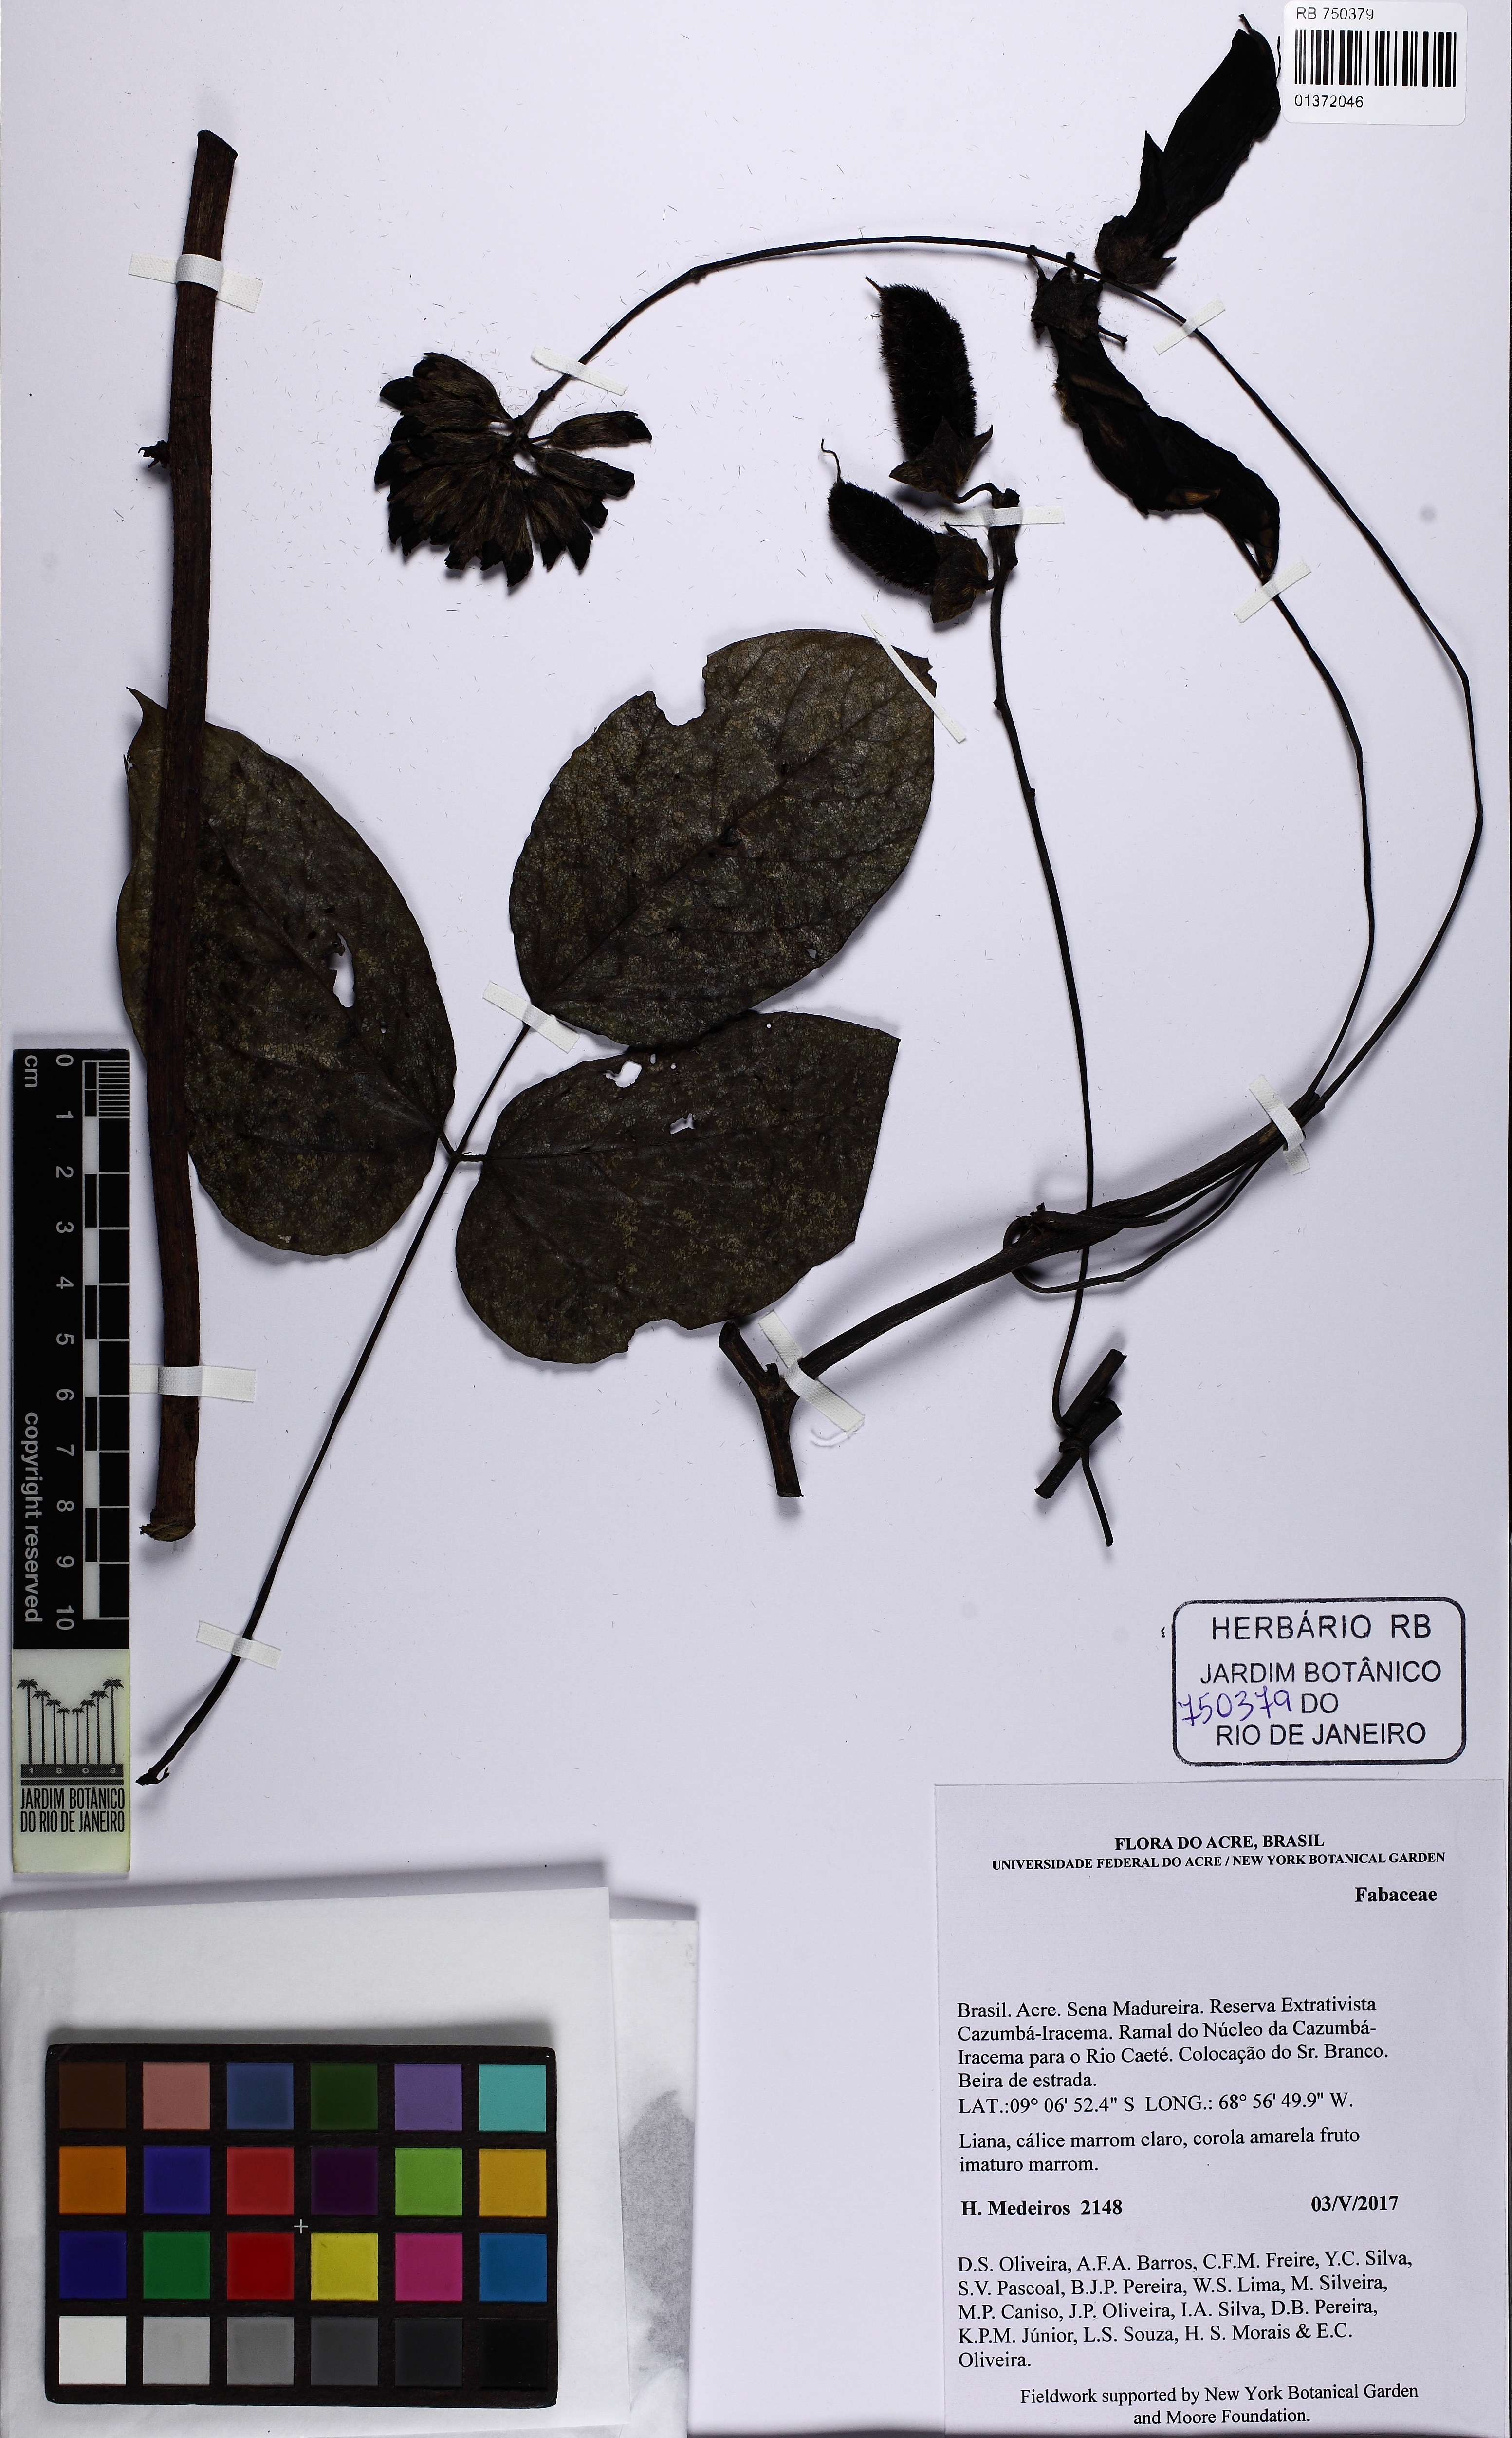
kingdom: Plantae
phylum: Tracheophyta
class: Magnoliopsida
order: Fabales
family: Fabaceae
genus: Mucuna
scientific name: Mucuna
